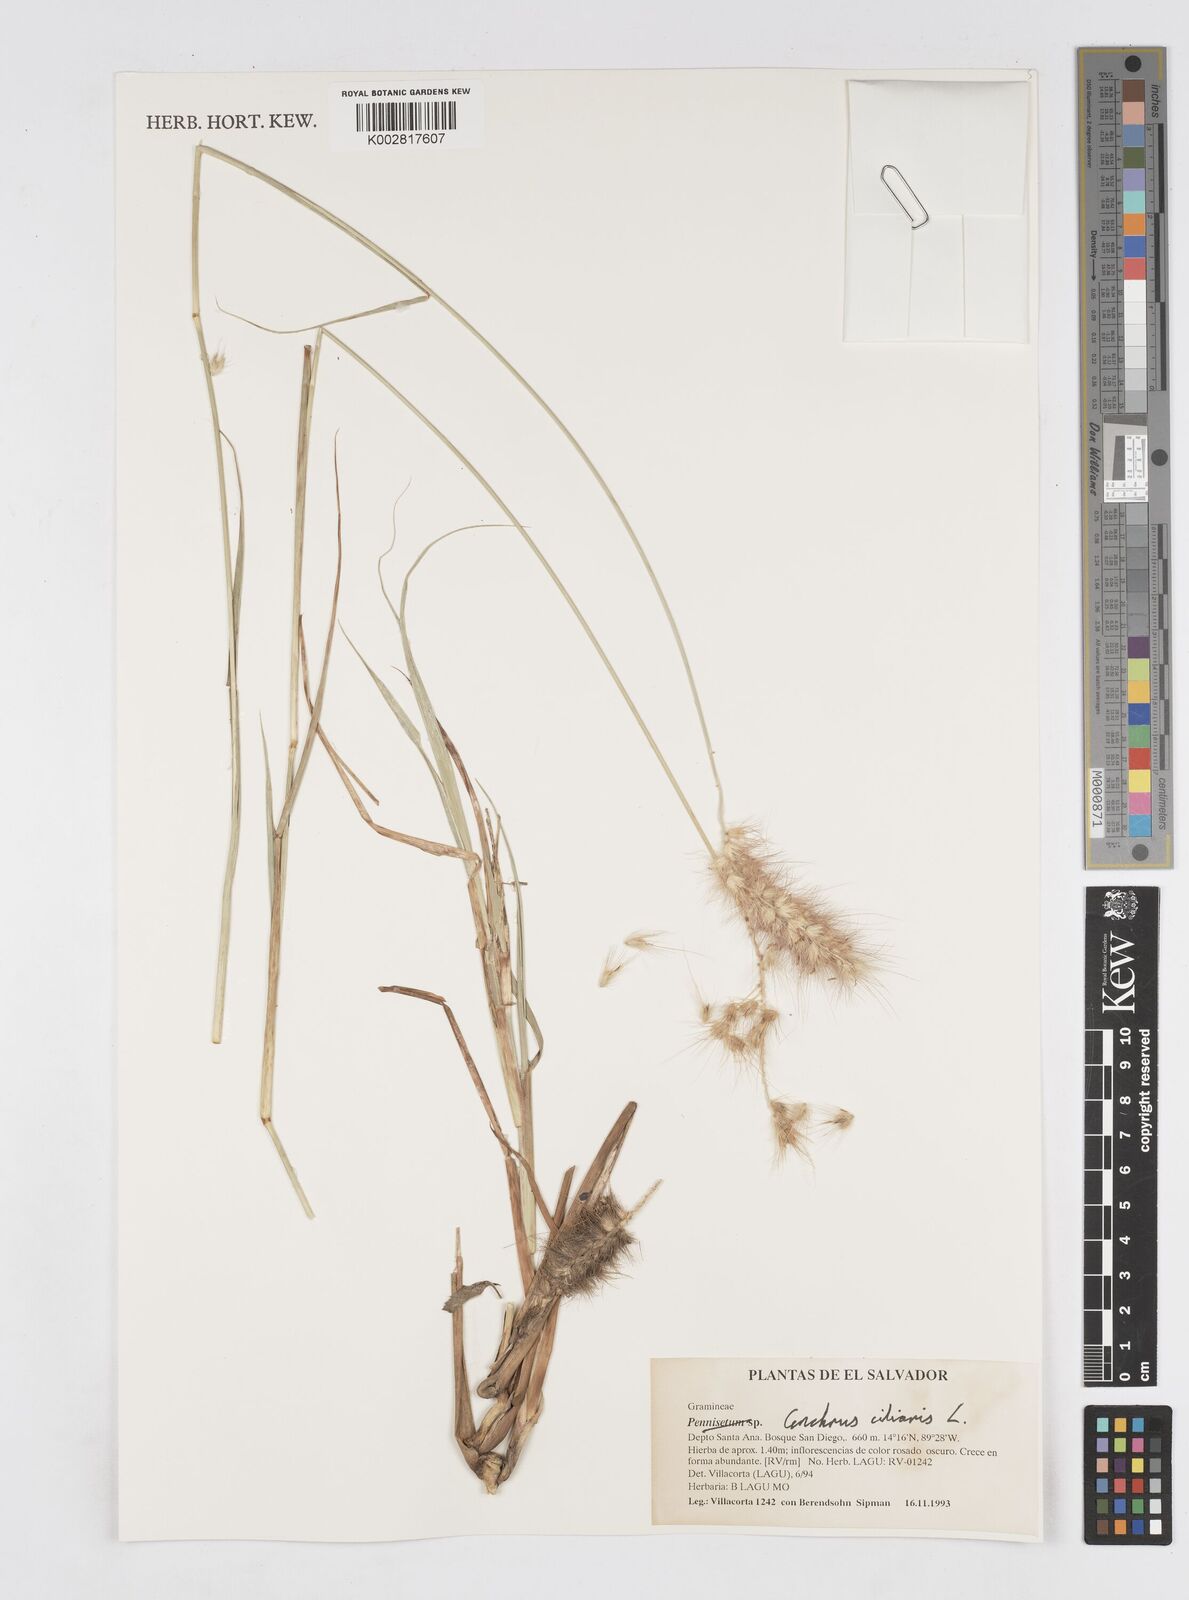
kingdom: Plantae
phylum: Tracheophyta
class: Liliopsida
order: Poales
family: Poaceae
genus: Cenchrus
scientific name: Cenchrus ciliaris
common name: Buffelgrass
